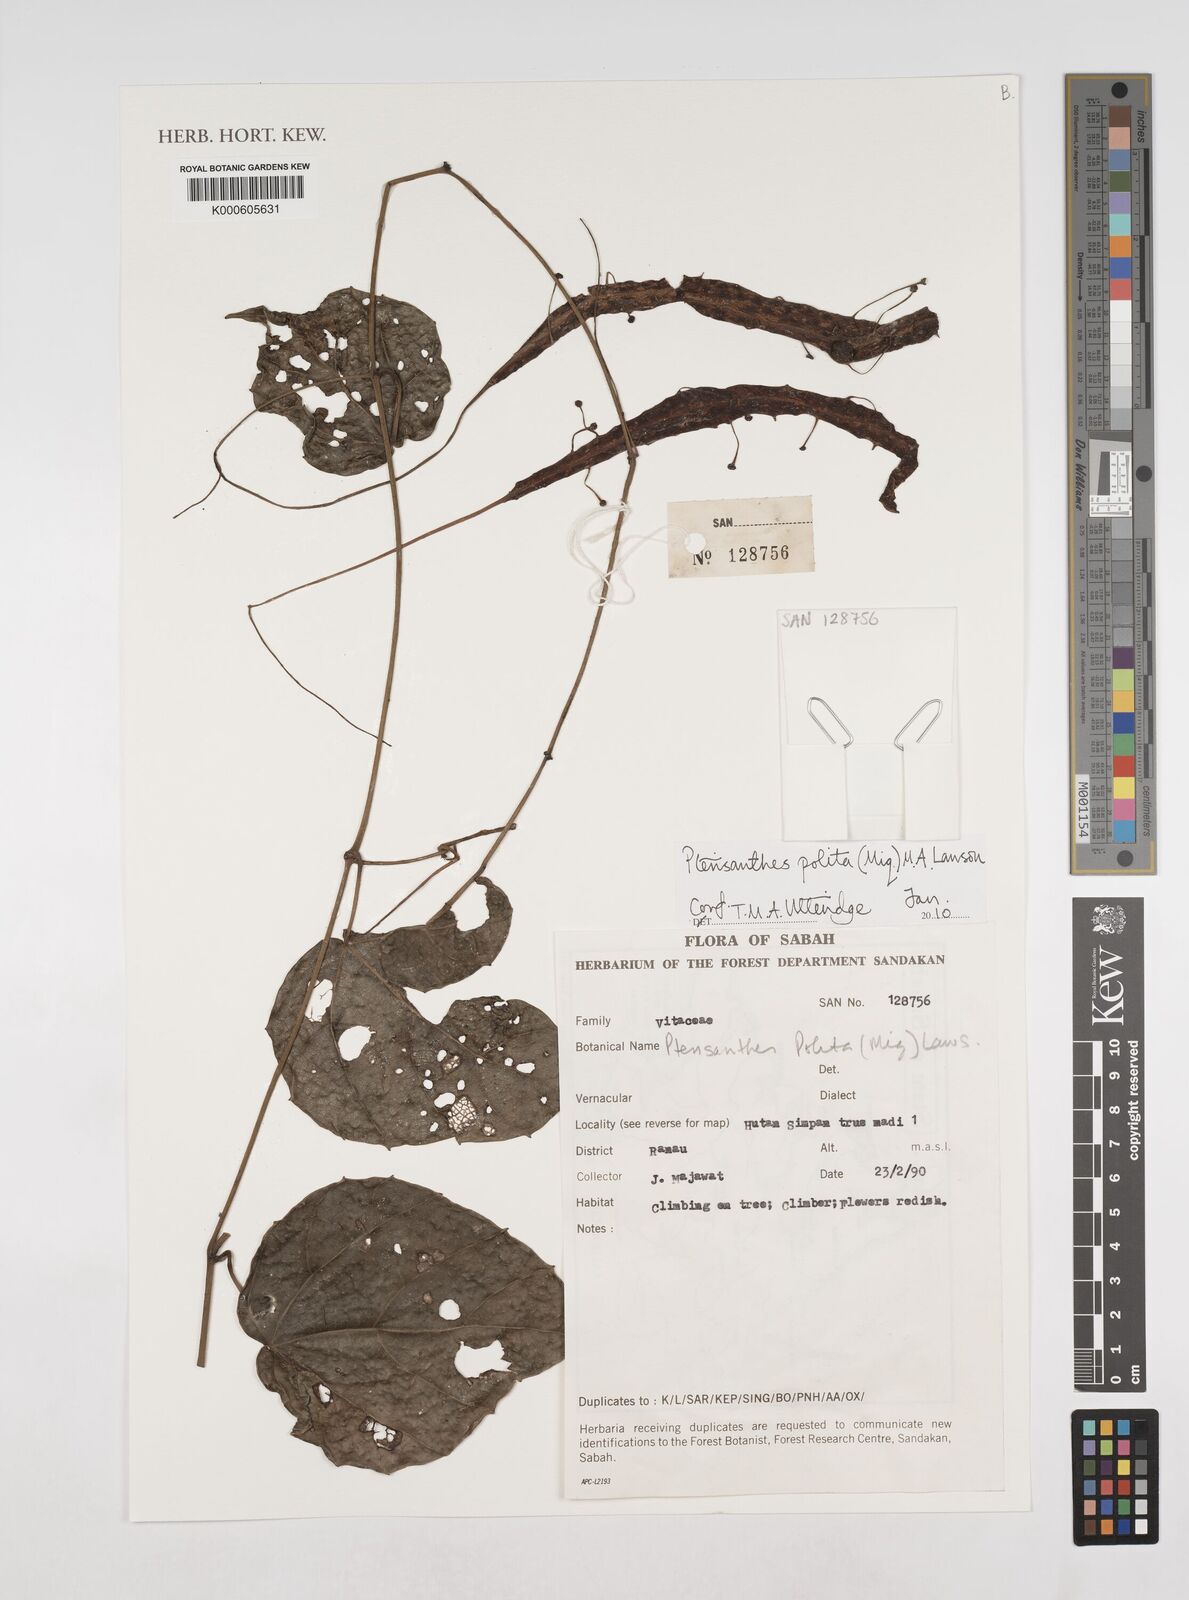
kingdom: Plantae
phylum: Tracheophyta
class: Magnoliopsida
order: Vitales
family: Vitaceae
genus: Ampelocissus
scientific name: Ampelocissus polita
